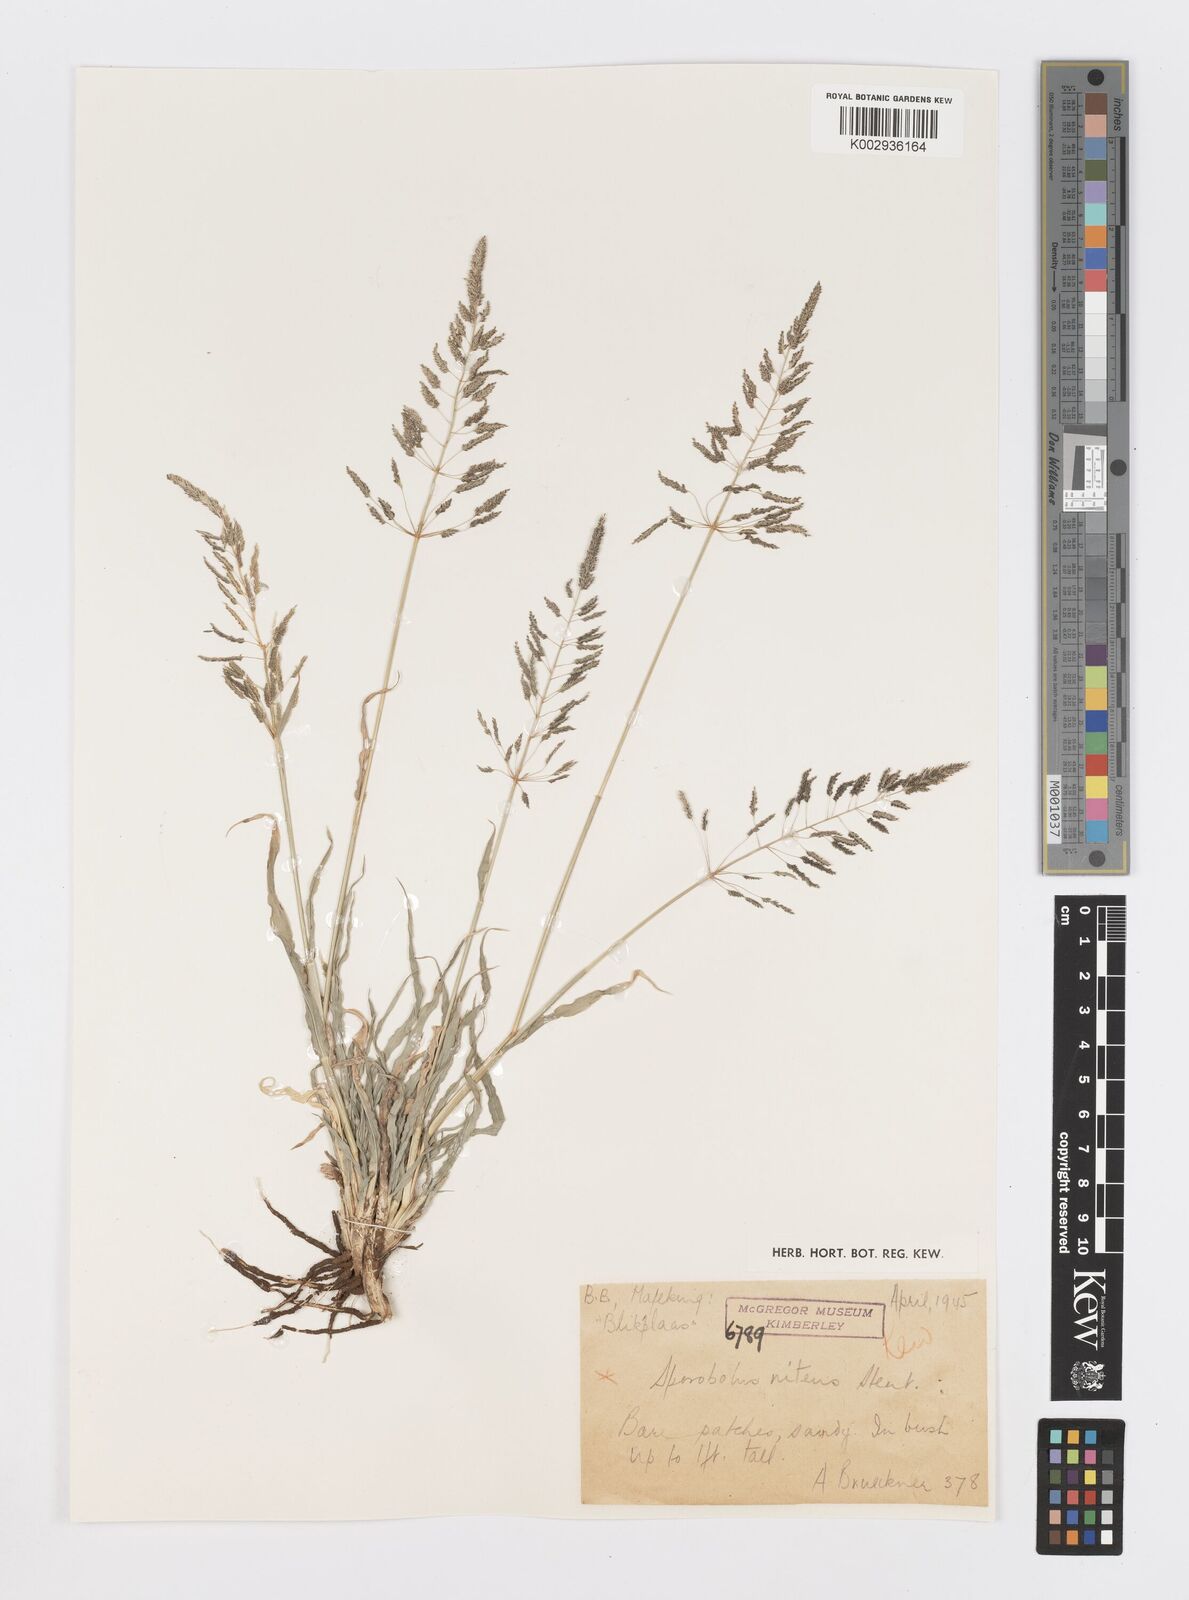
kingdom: Plantae
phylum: Tracheophyta
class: Liliopsida
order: Poales
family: Poaceae
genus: Sporobolus
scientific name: Sporobolus nitens
